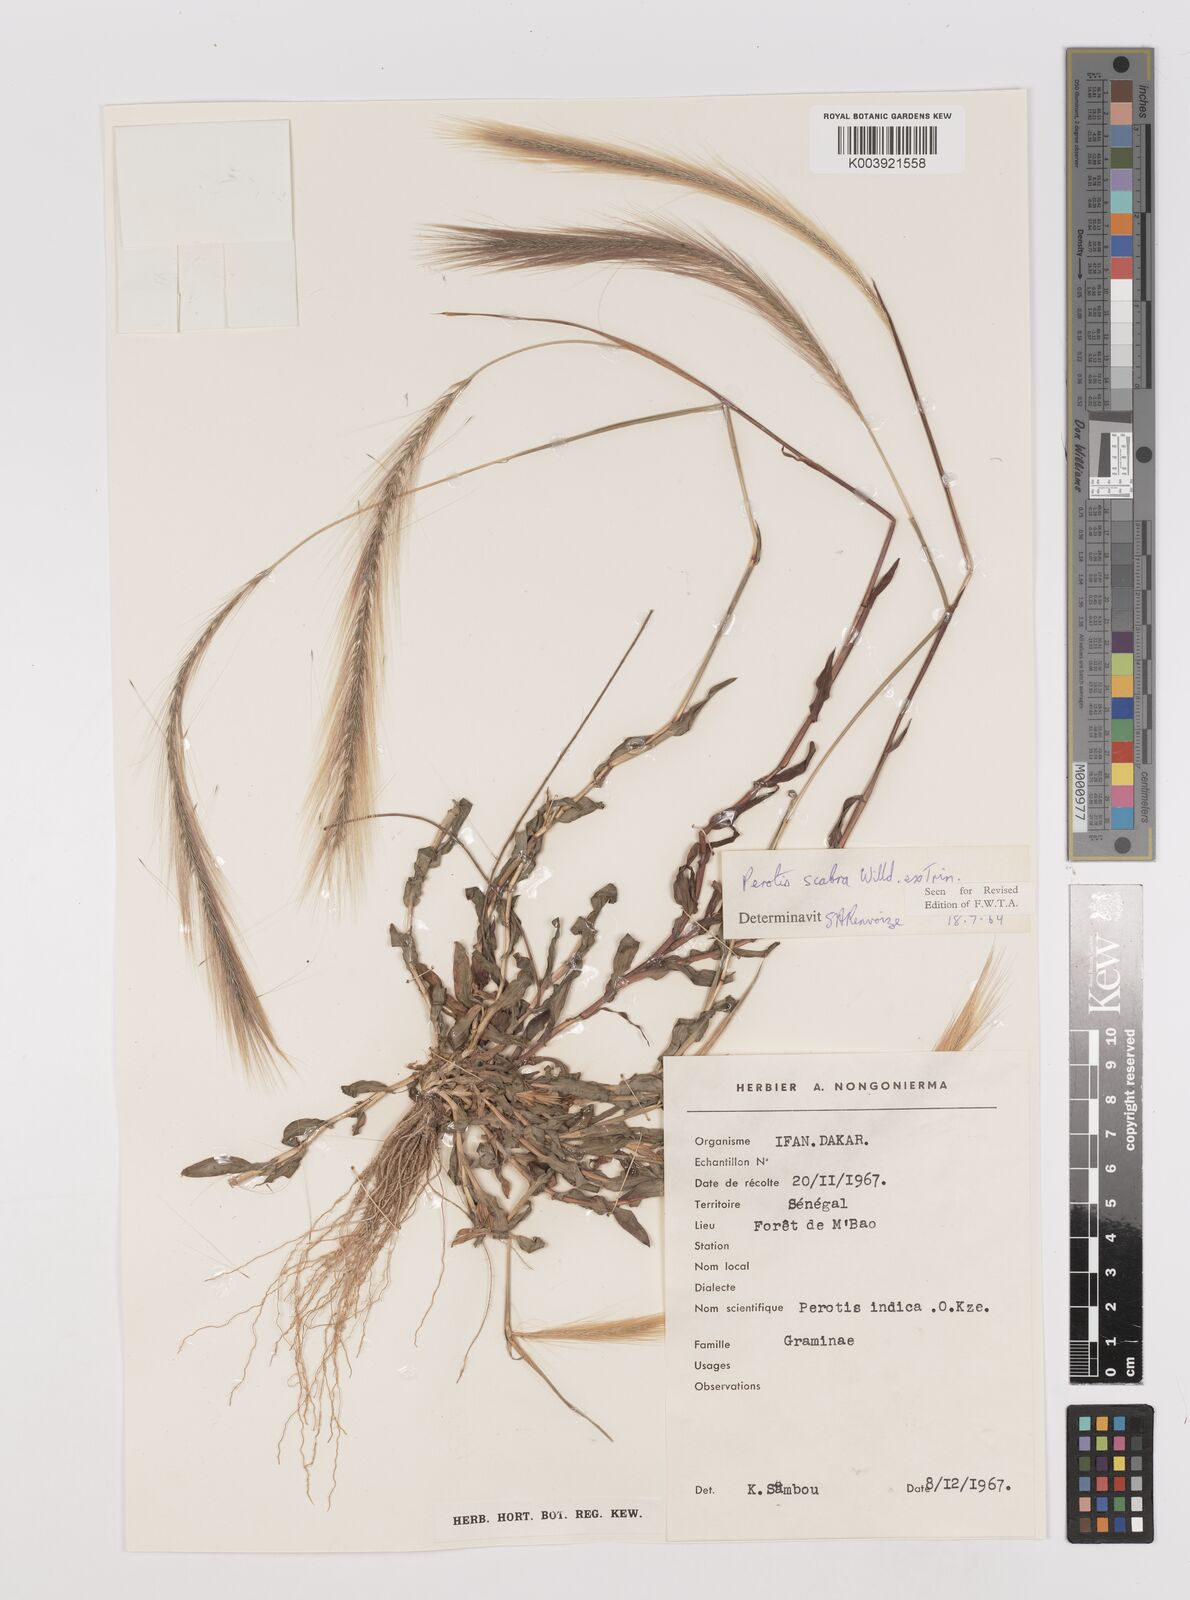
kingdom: Plantae
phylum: Tracheophyta
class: Liliopsida
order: Poales
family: Poaceae
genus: Perotis
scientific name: Perotis scabra
